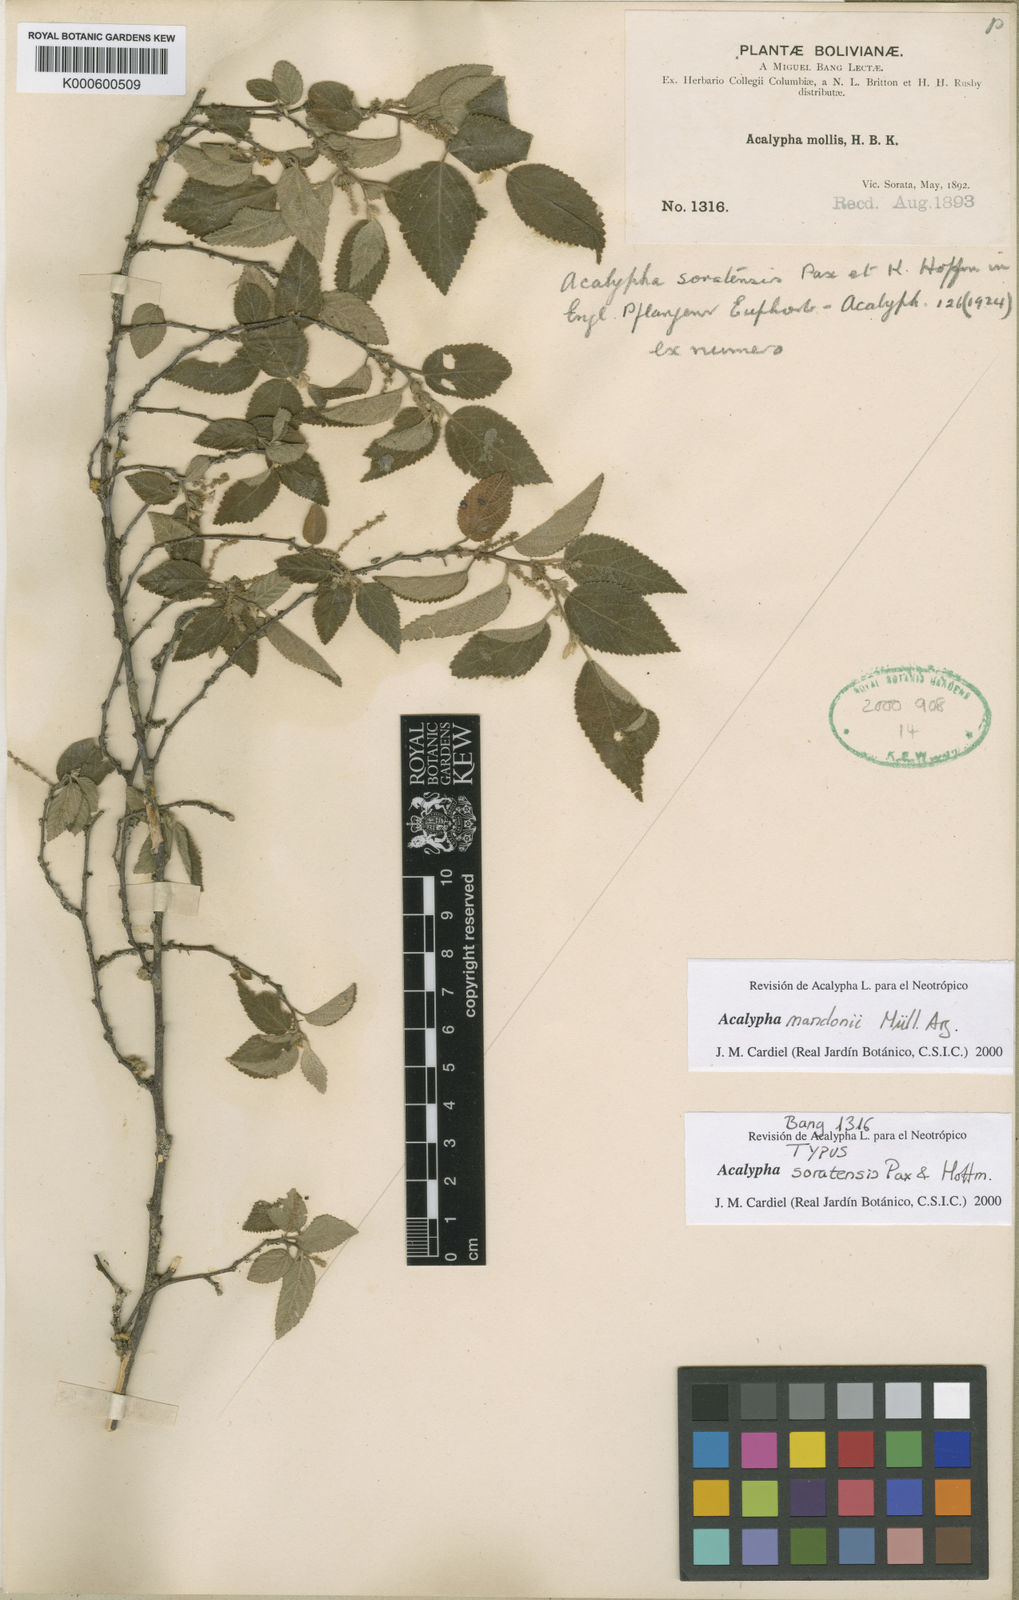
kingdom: Plantae
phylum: Tracheophyta
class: Magnoliopsida
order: Malpighiales
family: Euphorbiaceae
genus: Acalypha
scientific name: Acalypha
